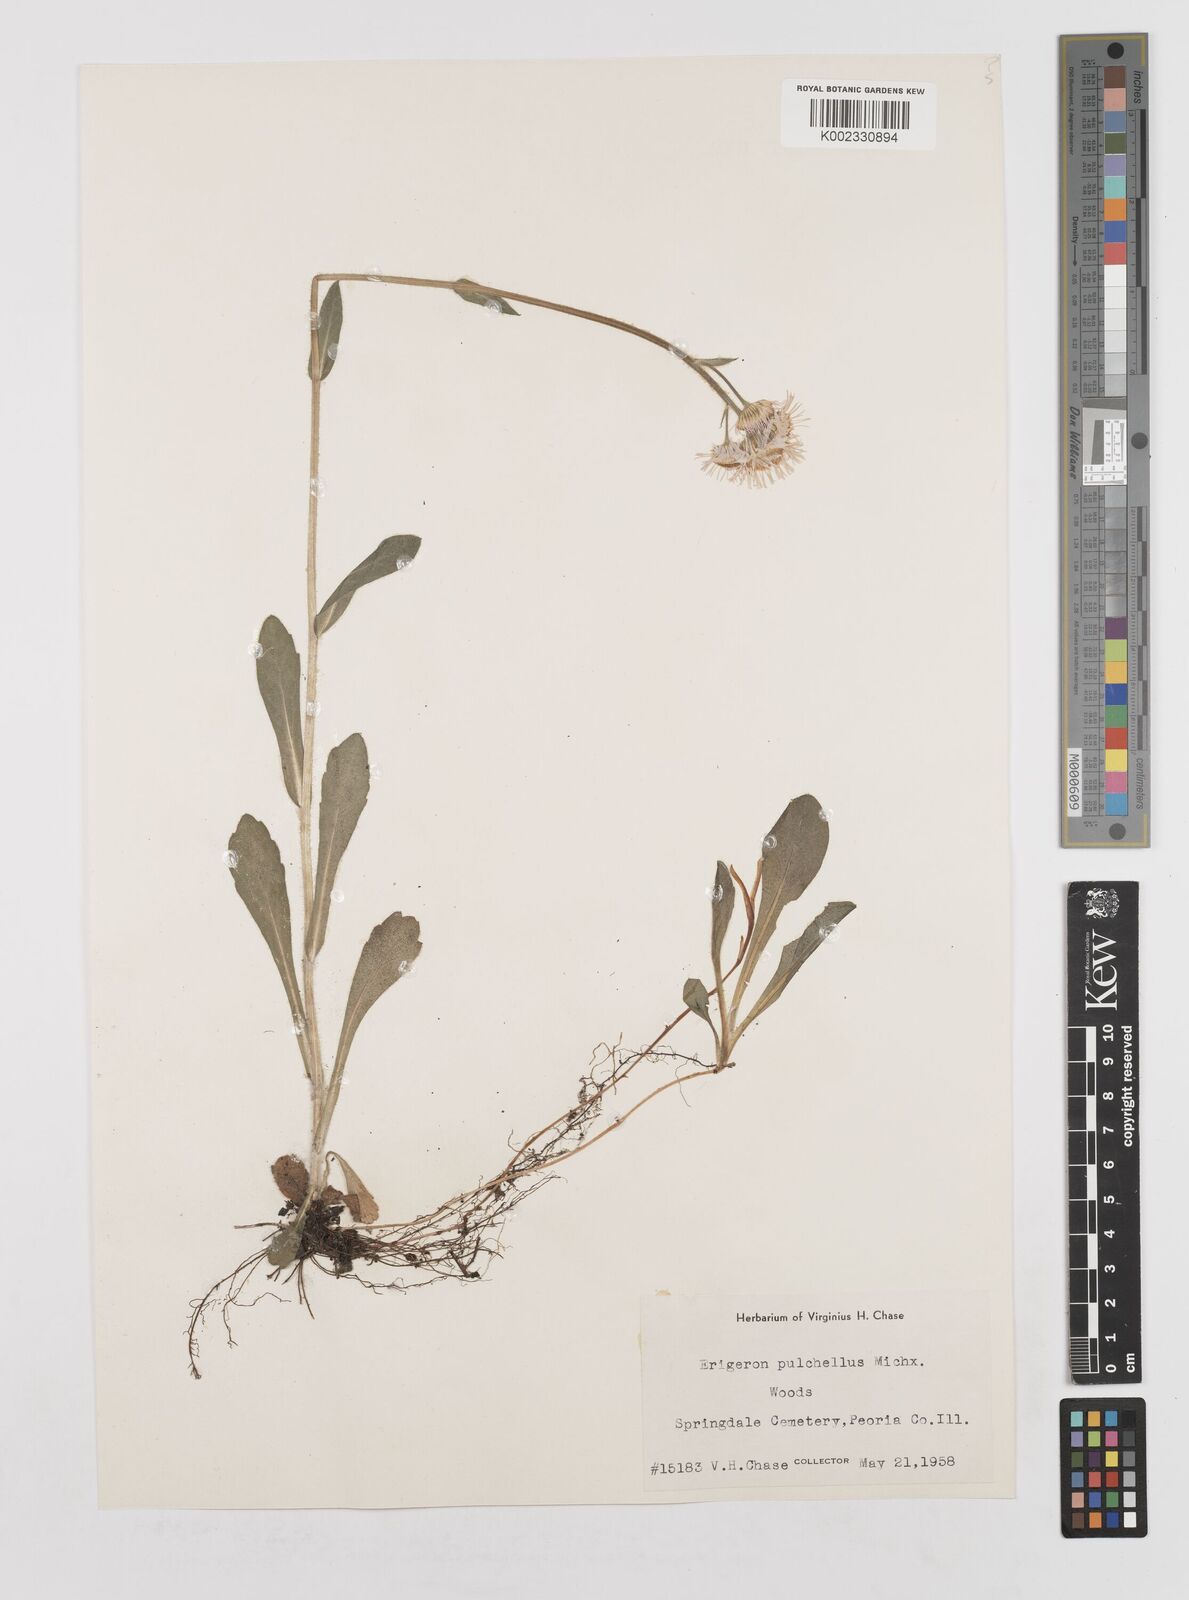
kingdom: Plantae
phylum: Tracheophyta
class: Magnoliopsida
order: Asterales
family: Asteraceae
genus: Erigeron
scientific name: Erigeron pulchellus
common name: Hairy fleabane
